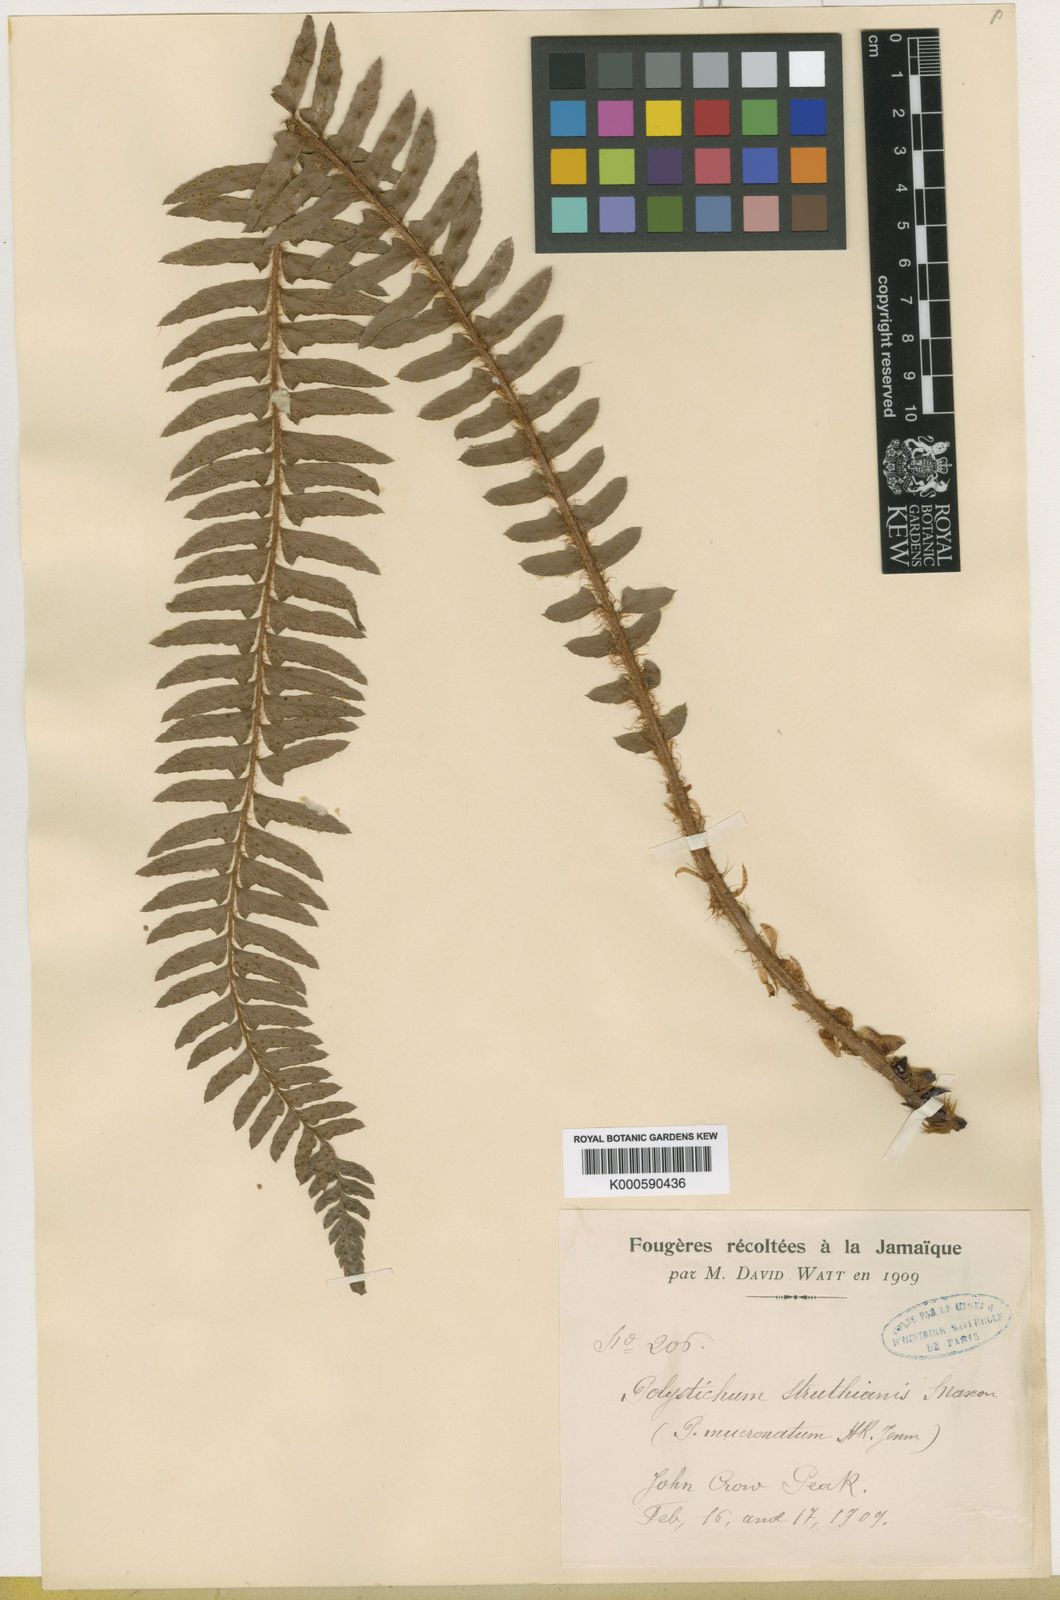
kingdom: Plantae
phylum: Tracheophyta
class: Polypodiopsida
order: Polypodiales
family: Dryopteridaceae
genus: Polystichum
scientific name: Polystichum triangulum
